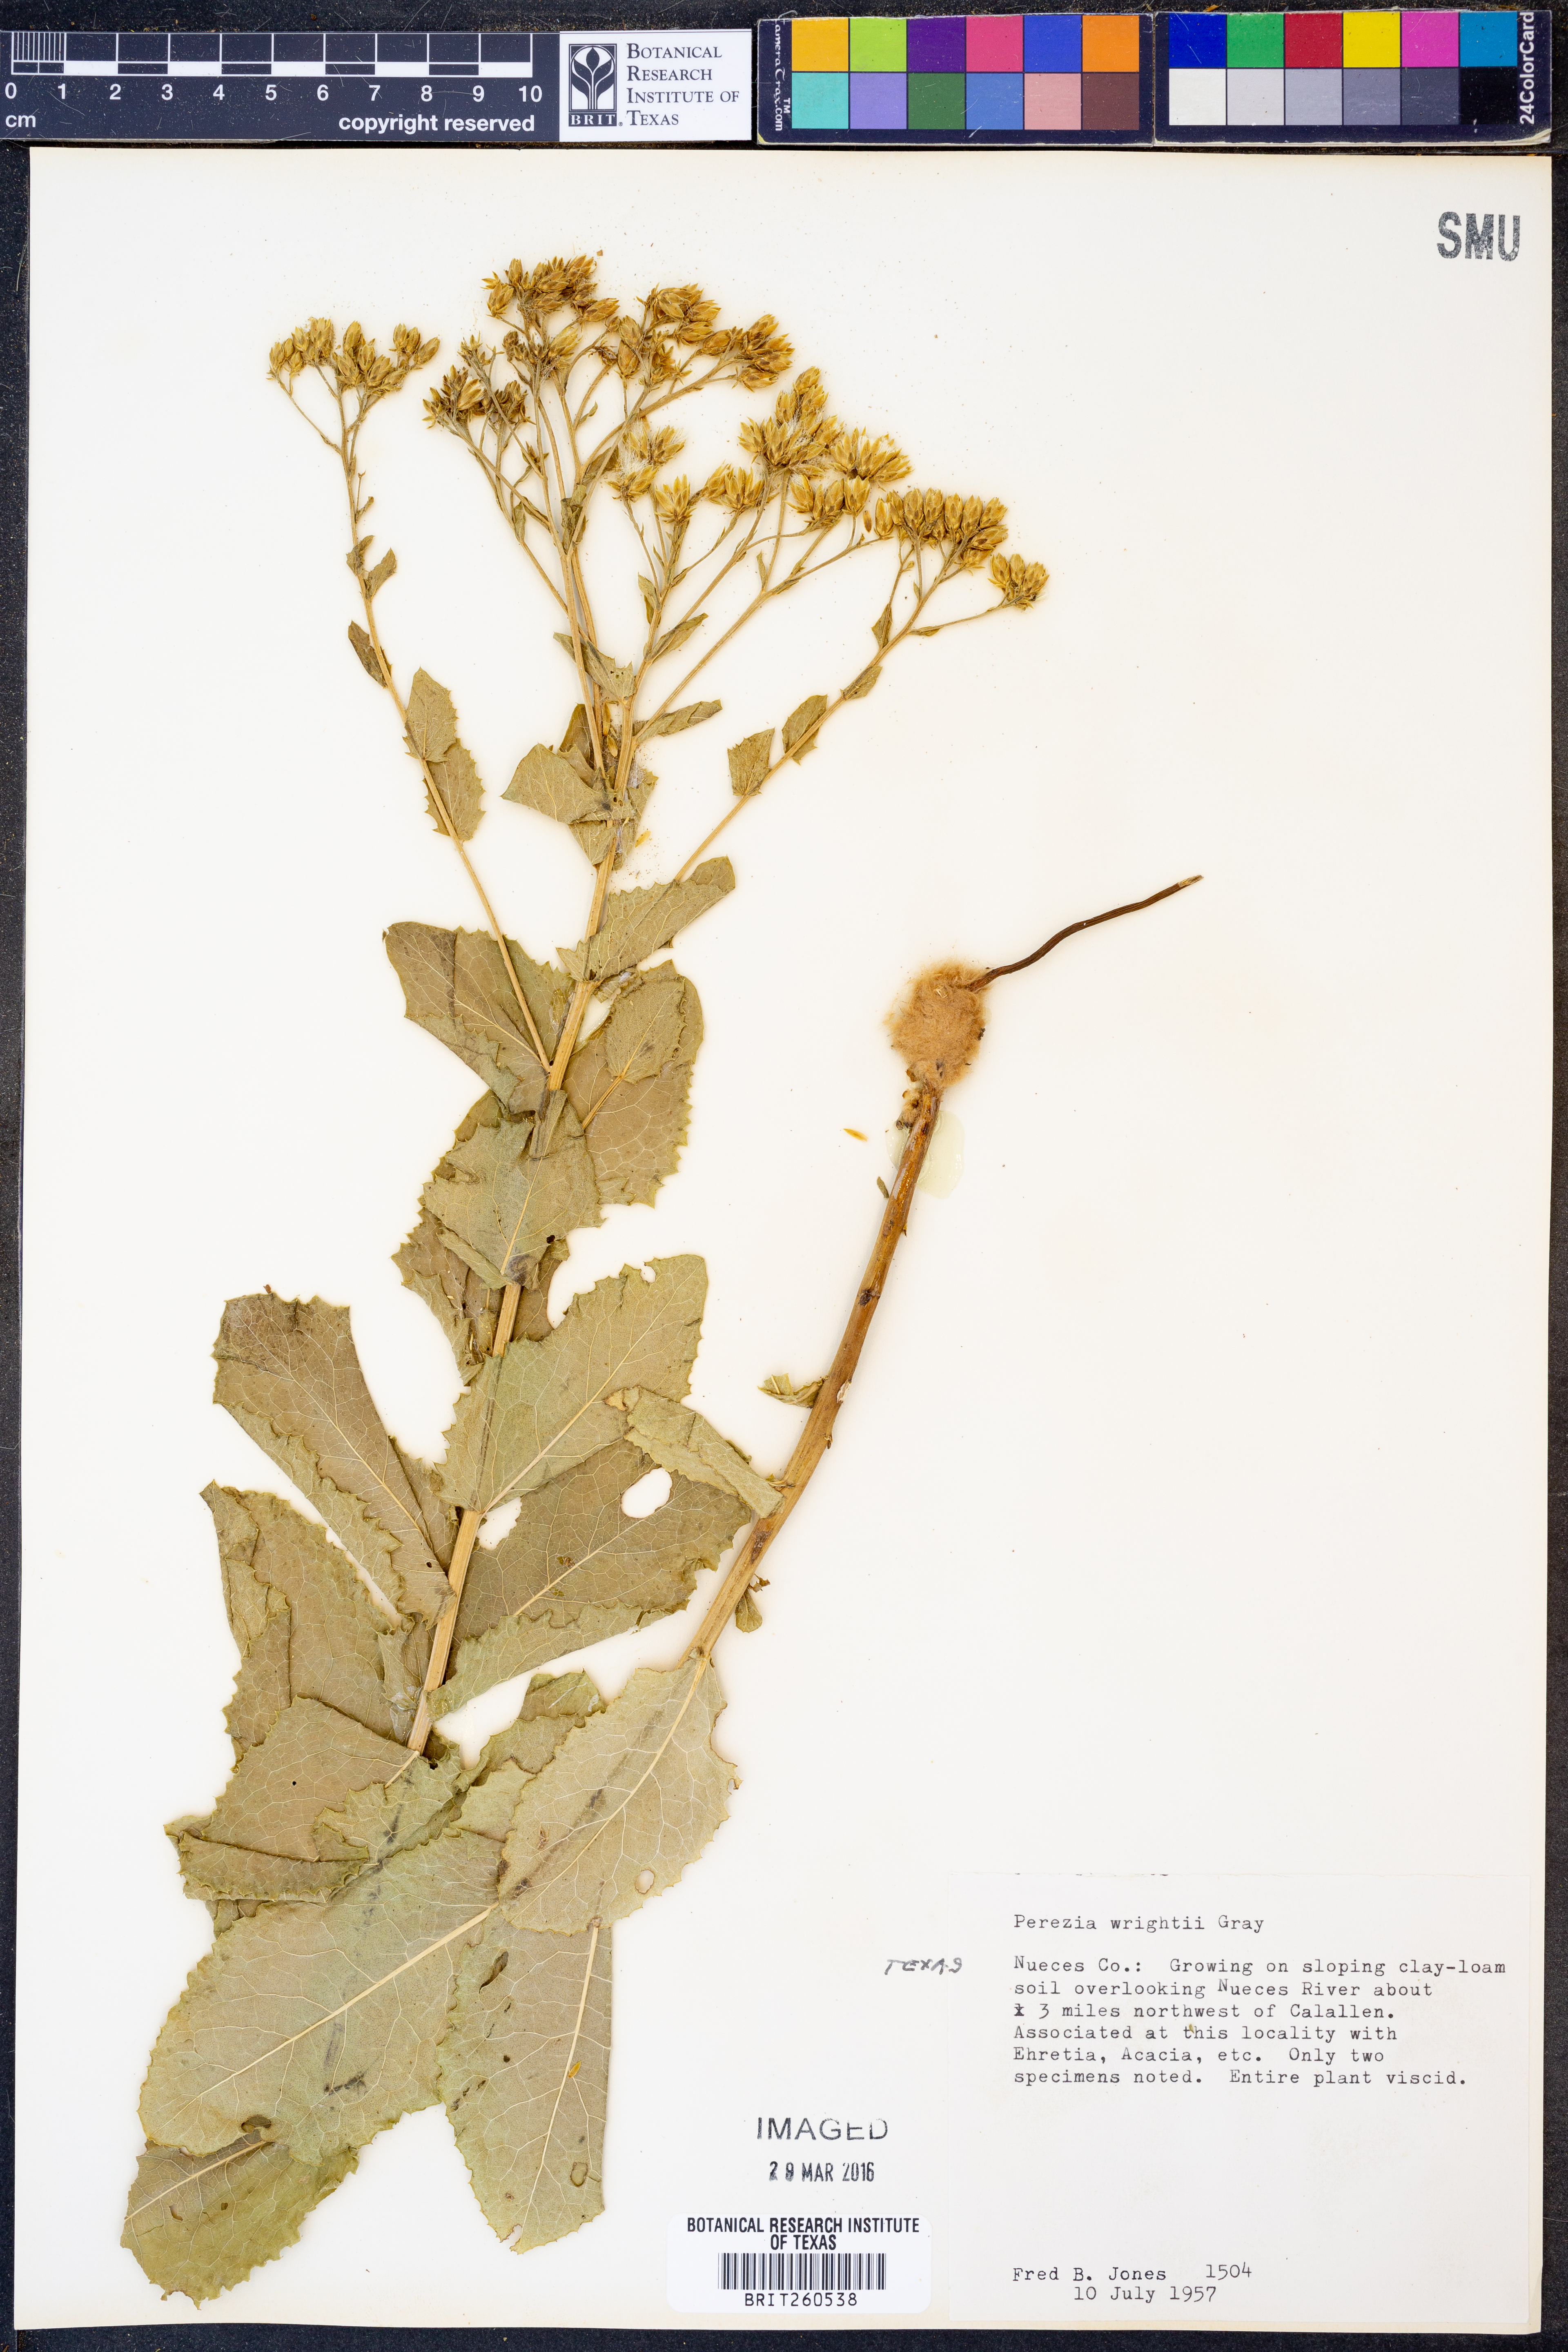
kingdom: Plantae
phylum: Tracheophyta
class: Magnoliopsida
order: Asterales
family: Asteraceae
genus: Acourtia
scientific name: Acourtia wrightii
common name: Brownfoot
